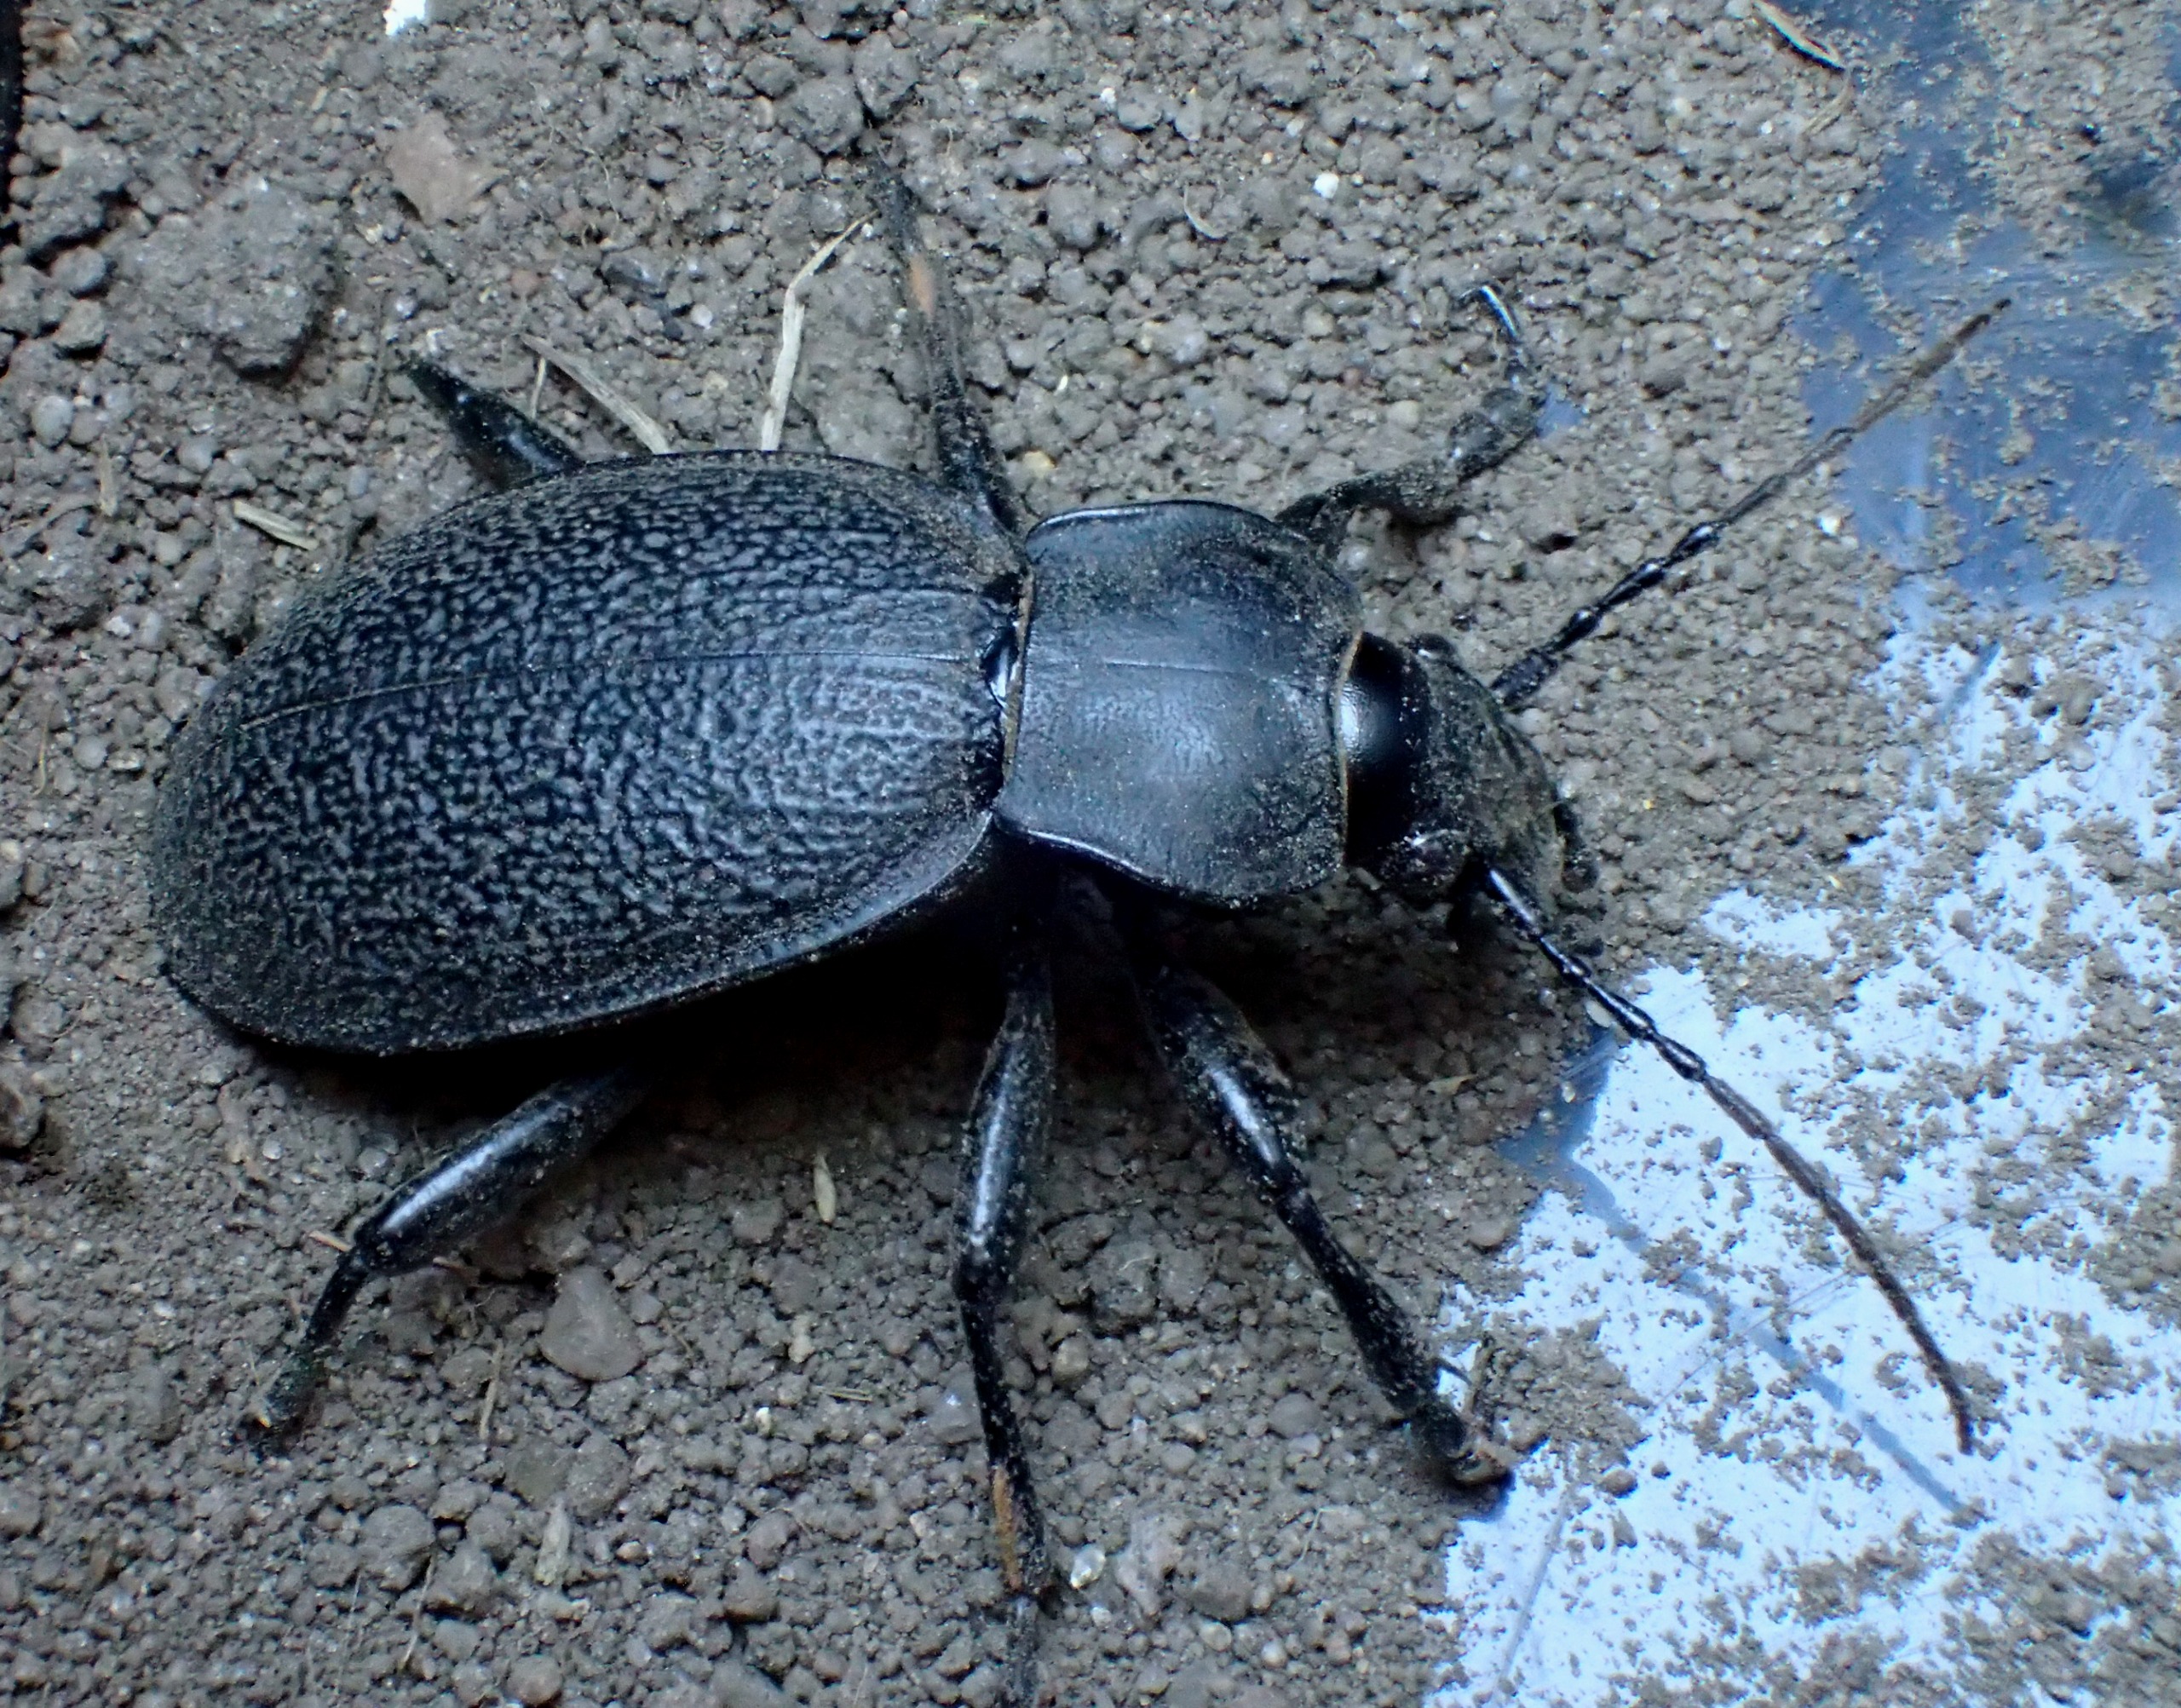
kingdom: Animalia
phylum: Arthropoda
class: Insecta
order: Coleoptera
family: Carabidae
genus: Carabus
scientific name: Carabus coriaceus
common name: Læderløber
